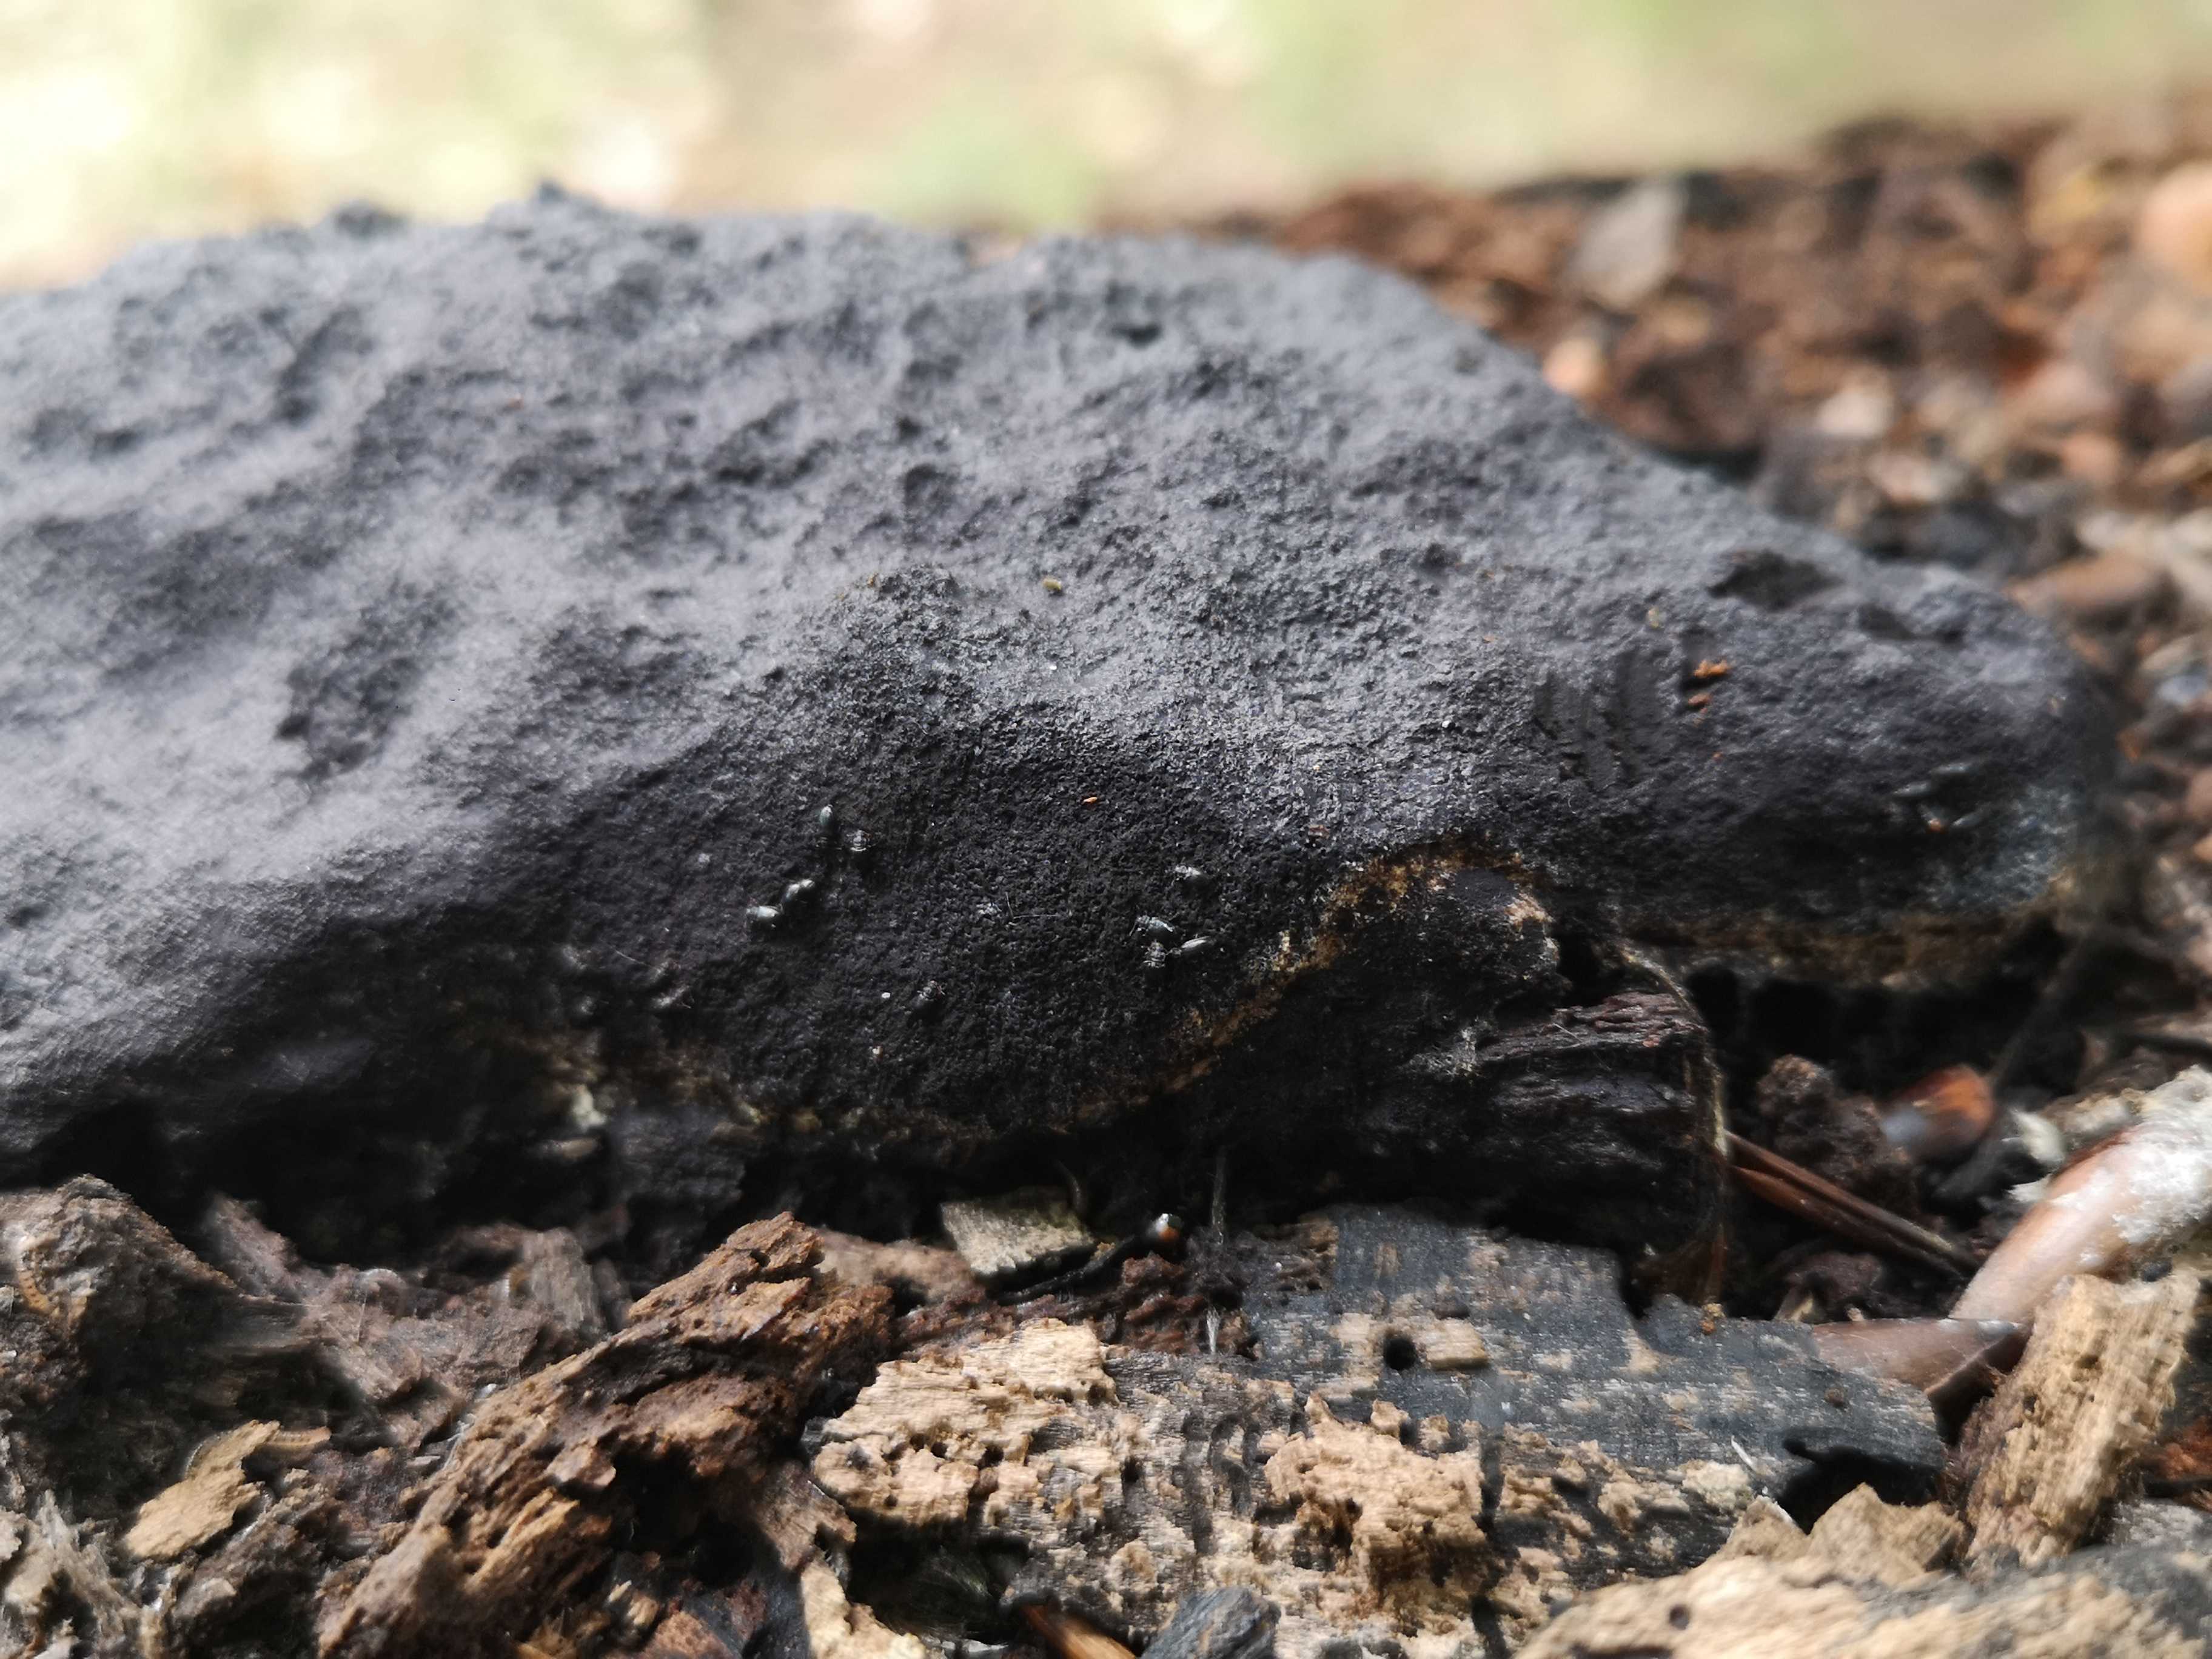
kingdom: Protozoa
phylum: Mycetozoa
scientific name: Mycetozoa
